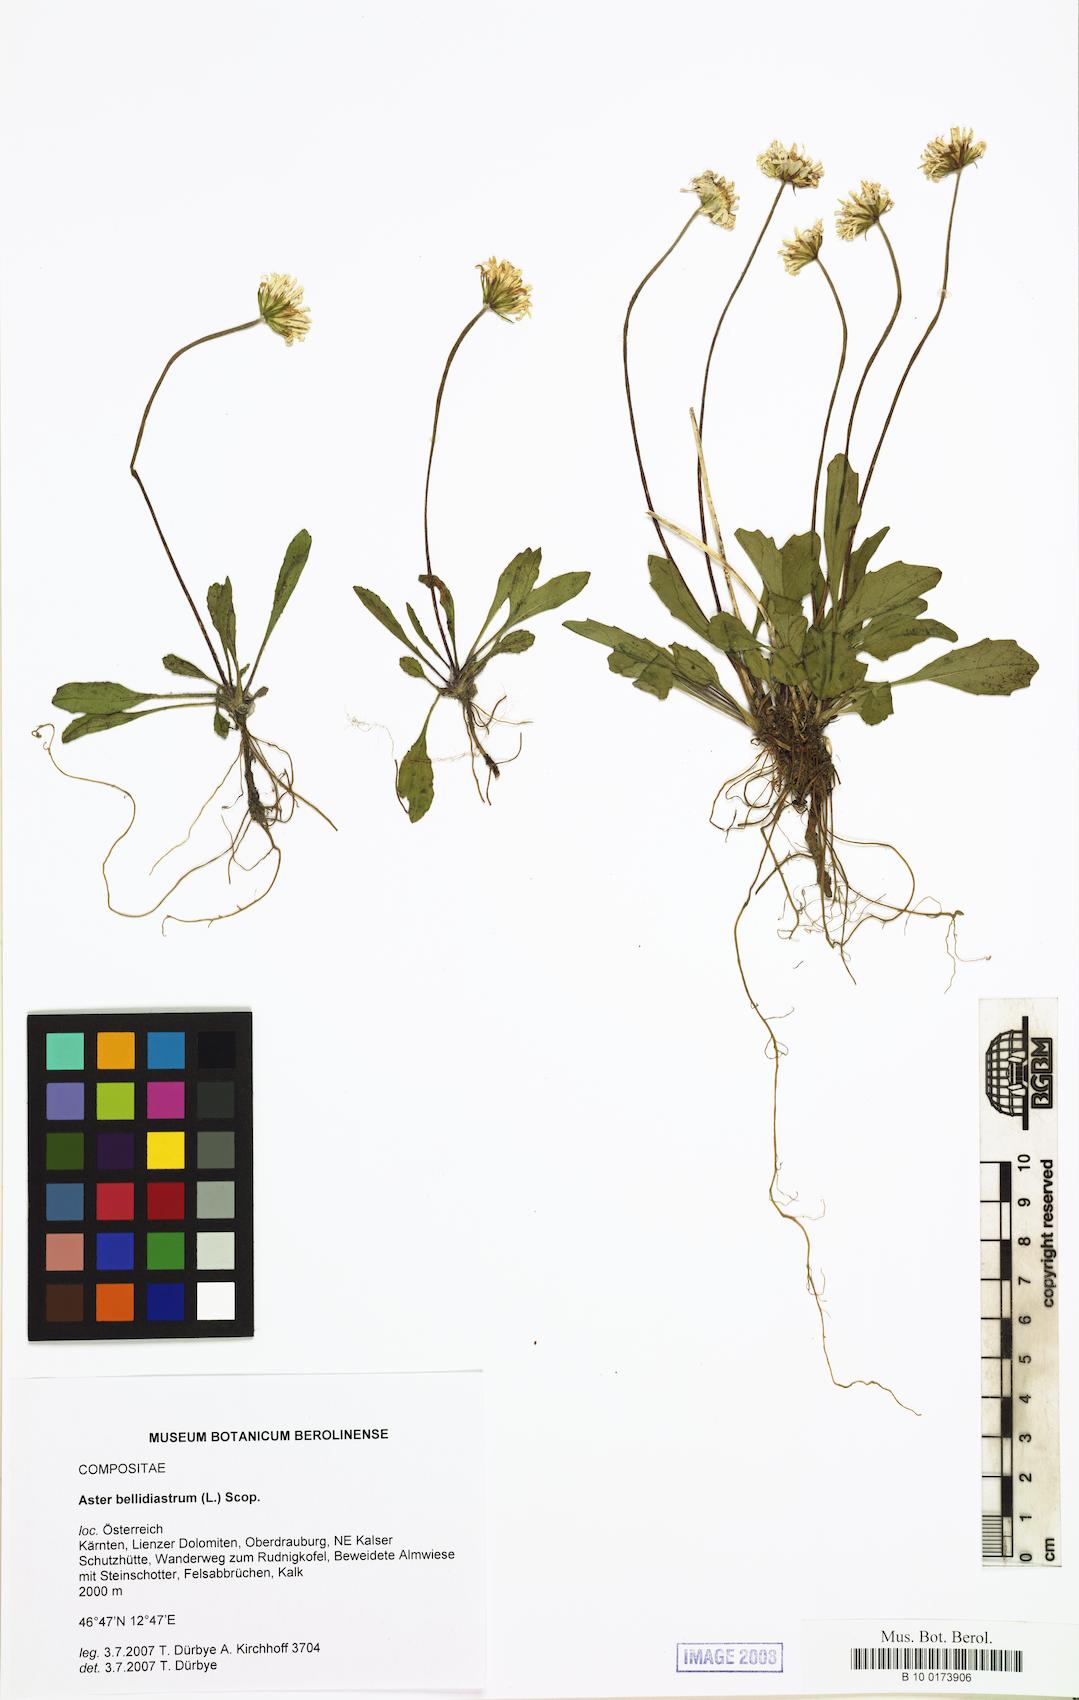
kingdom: Plantae
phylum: Tracheophyta
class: Magnoliopsida
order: Asterales
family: Asteraceae
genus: Bellidiastrum
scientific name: Bellidiastrum michelii
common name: Daisy-star aster
